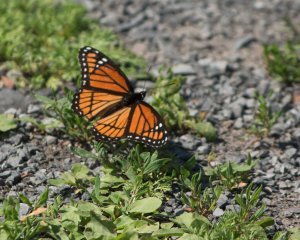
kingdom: Animalia
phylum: Arthropoda
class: Insecta
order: Lepidoptera
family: Nymphalidae
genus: Limenitis
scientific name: Limenitis archippus
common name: Viceroy
